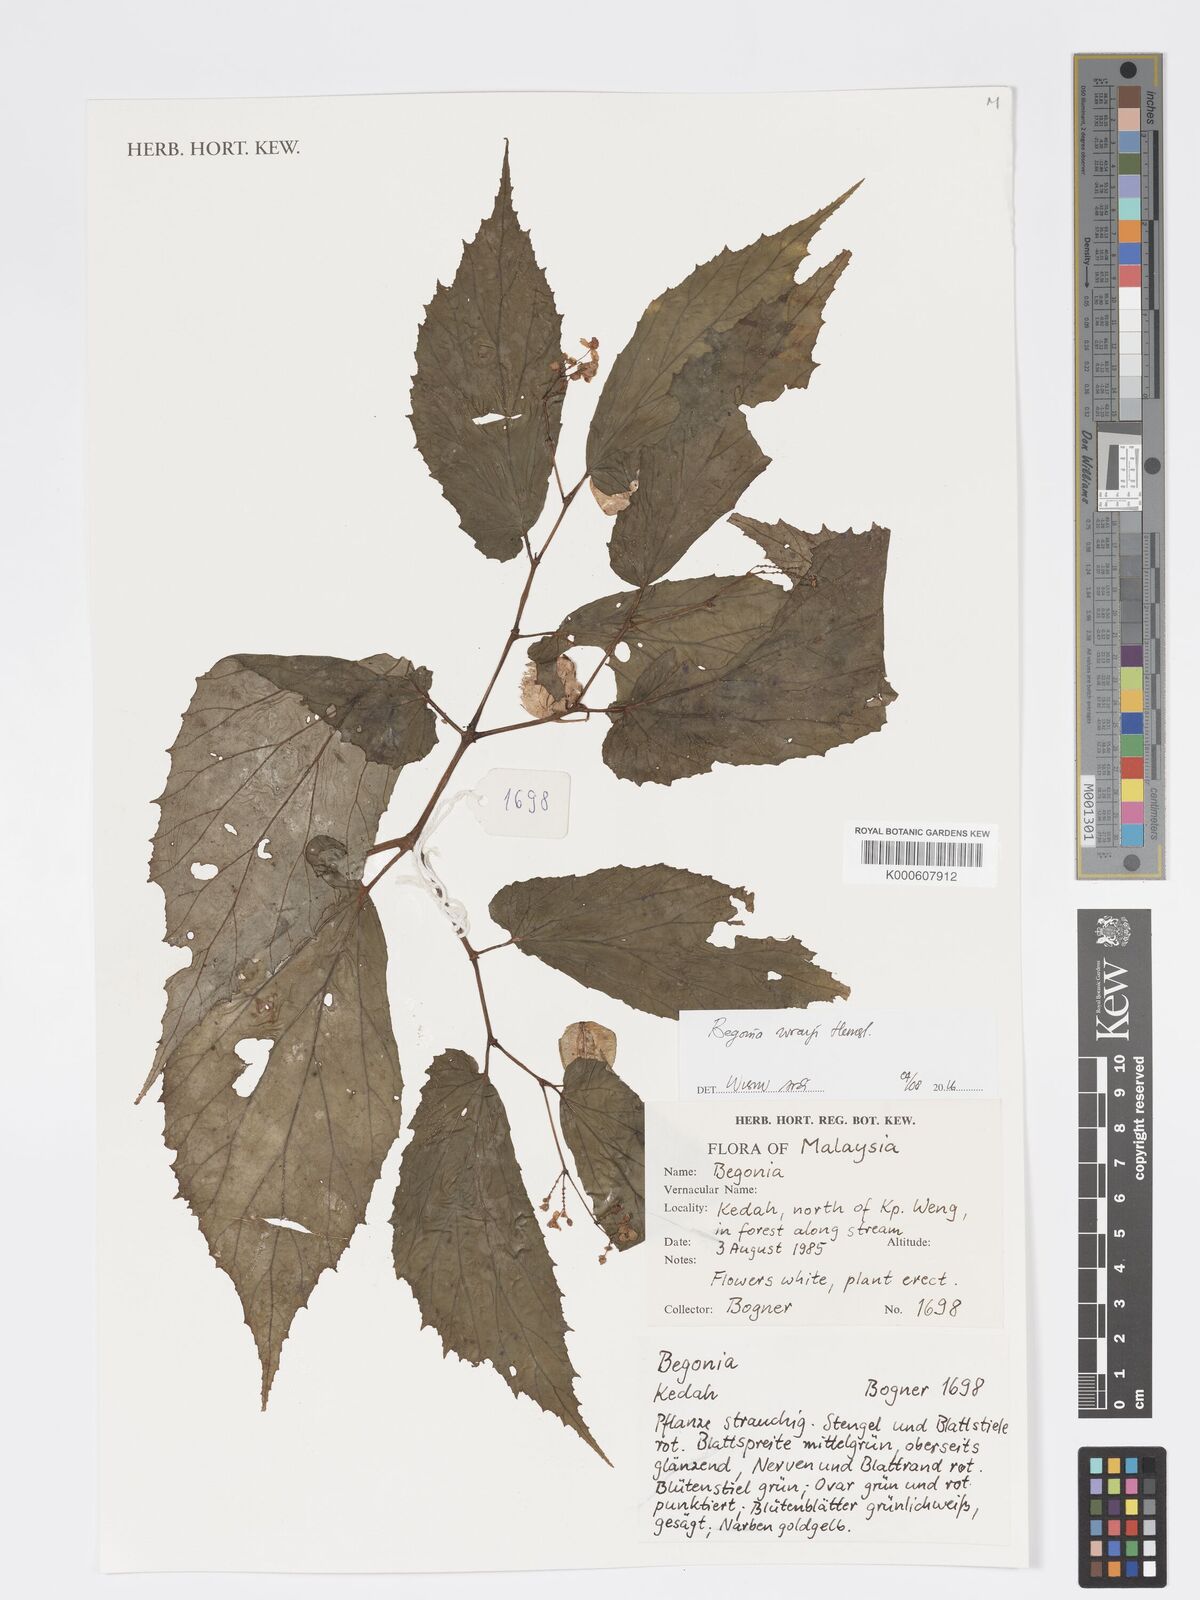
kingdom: Plantae
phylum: Tracheophyta
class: Magnoliopsida
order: Cucurbitales
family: Begoniaceae
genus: Begonia
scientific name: Begonia wrayi
